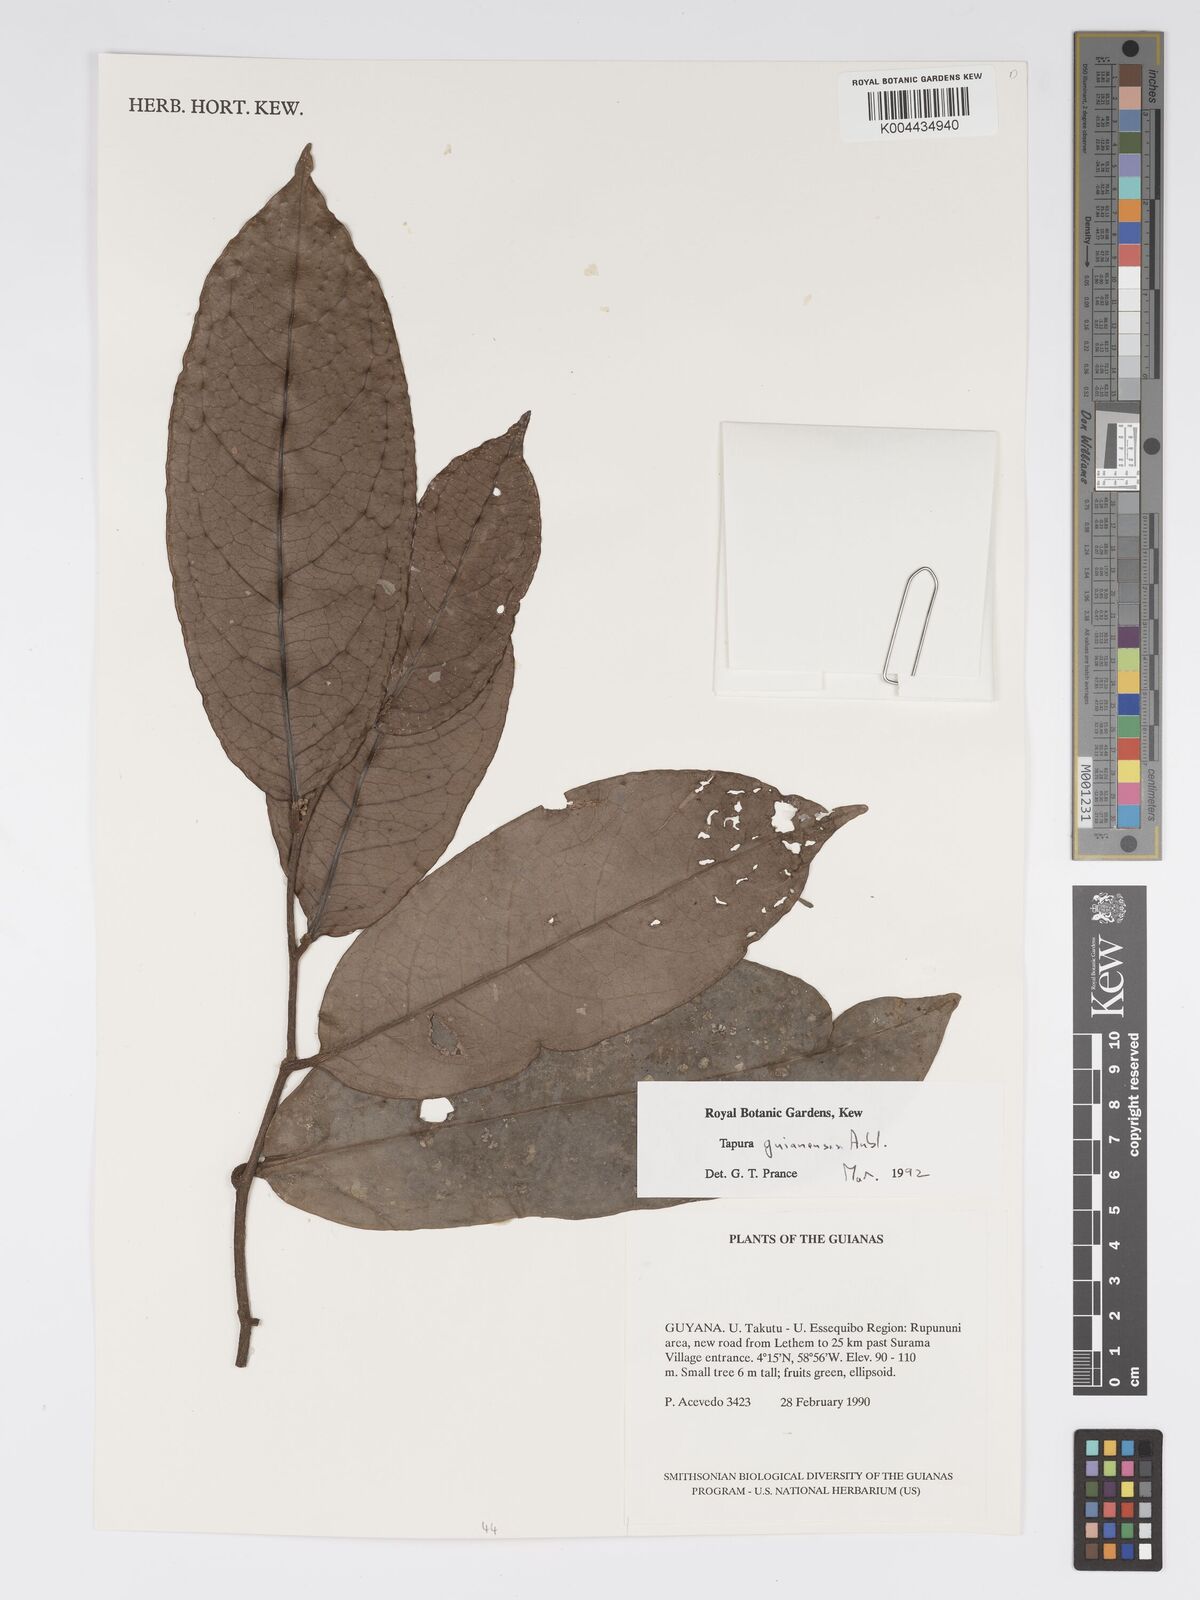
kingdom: Plantae
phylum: Tracheophyta
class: Magnoliopsida
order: Malpighiales
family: Dichapetalaceae
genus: Tapura
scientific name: Tapura guianensis
